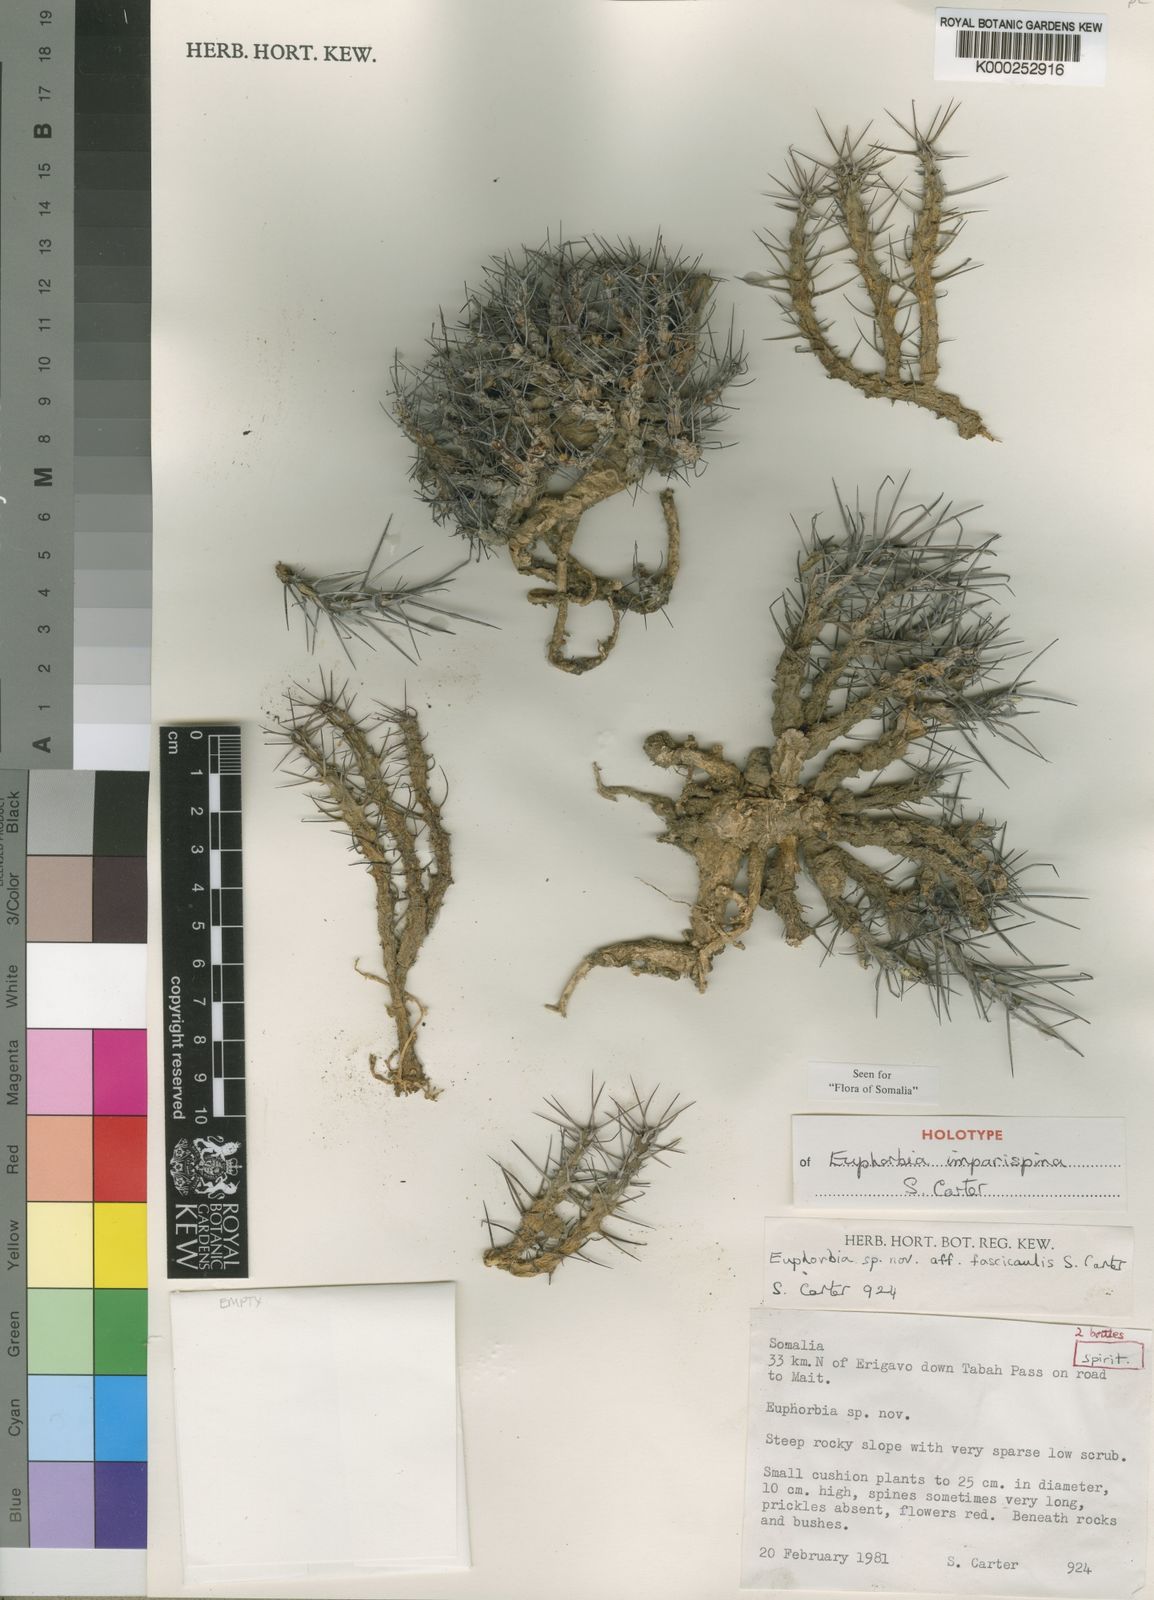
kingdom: Plantae
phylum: Tracheophyta
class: Magnoliopsida
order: Malpighiales
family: Euphorbiaceae
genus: Euphorbia
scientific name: Euphorbia imparispina
